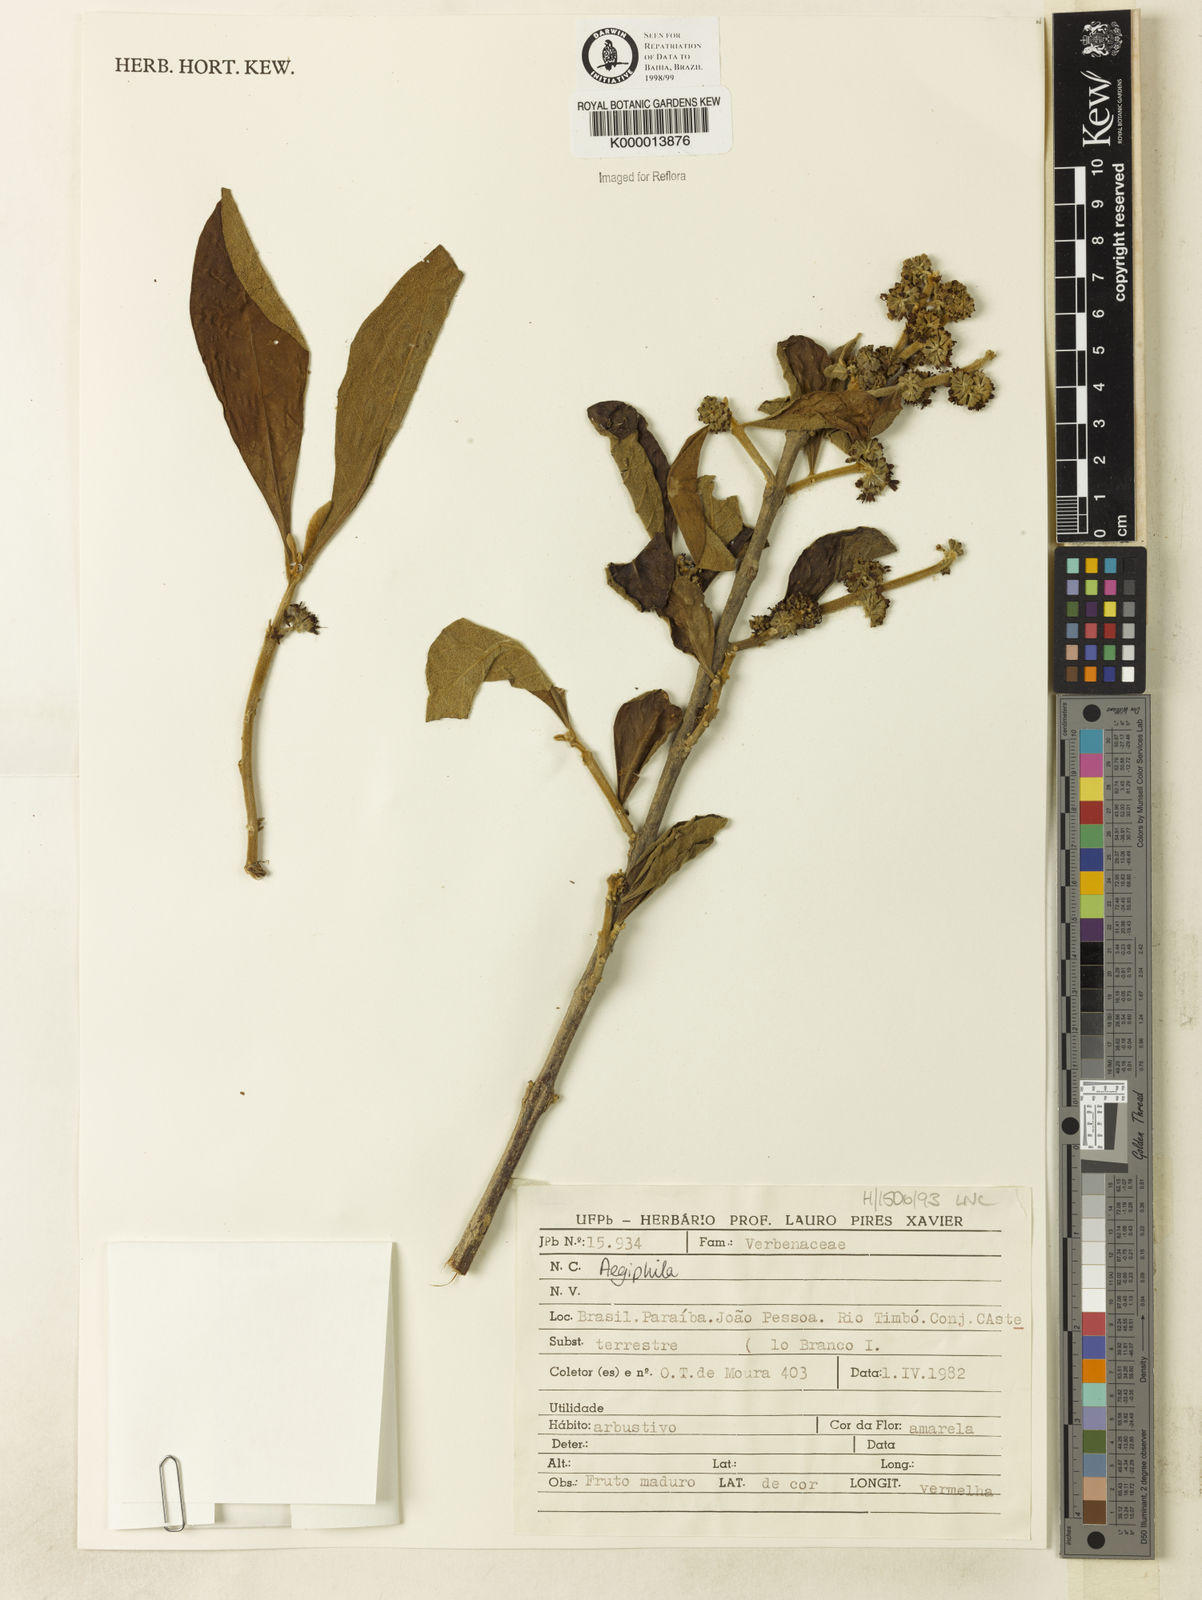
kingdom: Plantae
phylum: Tracheophyta
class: Magnoliopsida
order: Lamiales
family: Lamiaceae
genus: Aegiphila
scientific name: Aegiphila
